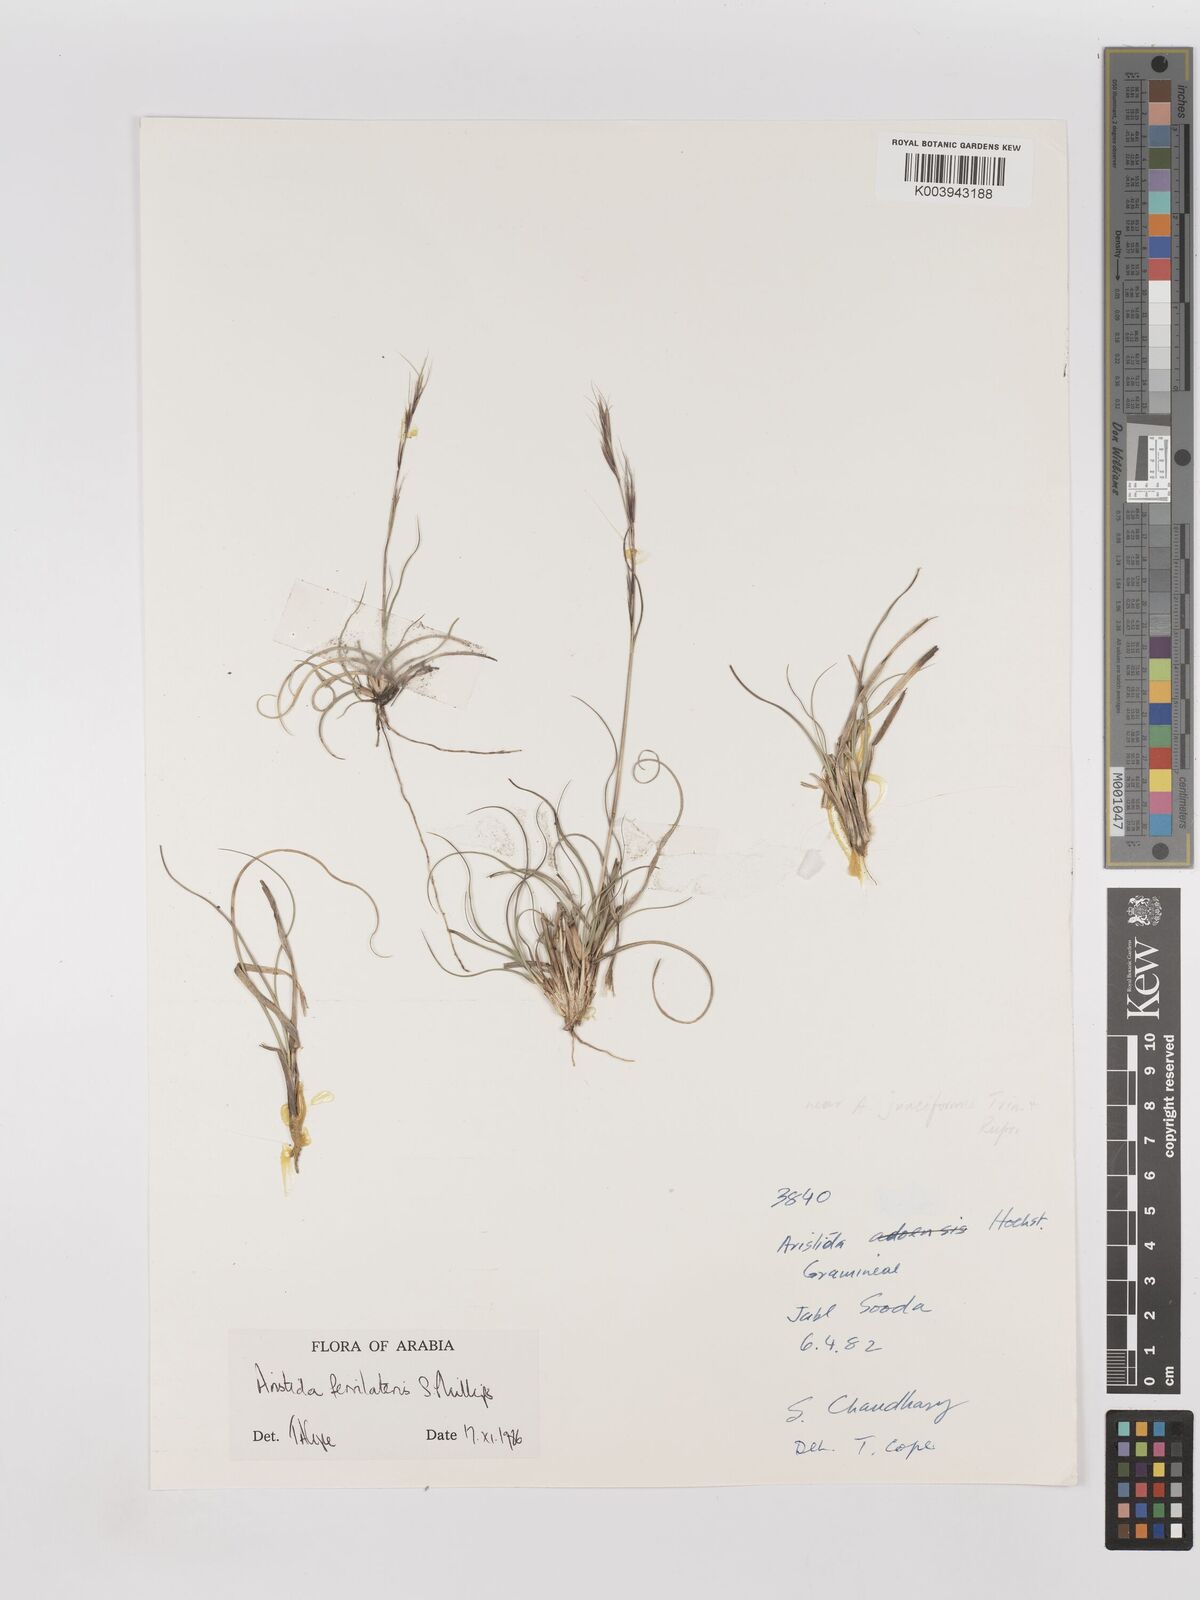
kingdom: Plantae
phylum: Tracheophyta
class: Liliopsida
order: Poales
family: Poaceae
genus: Aristida
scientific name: Aristida ferrilateris
